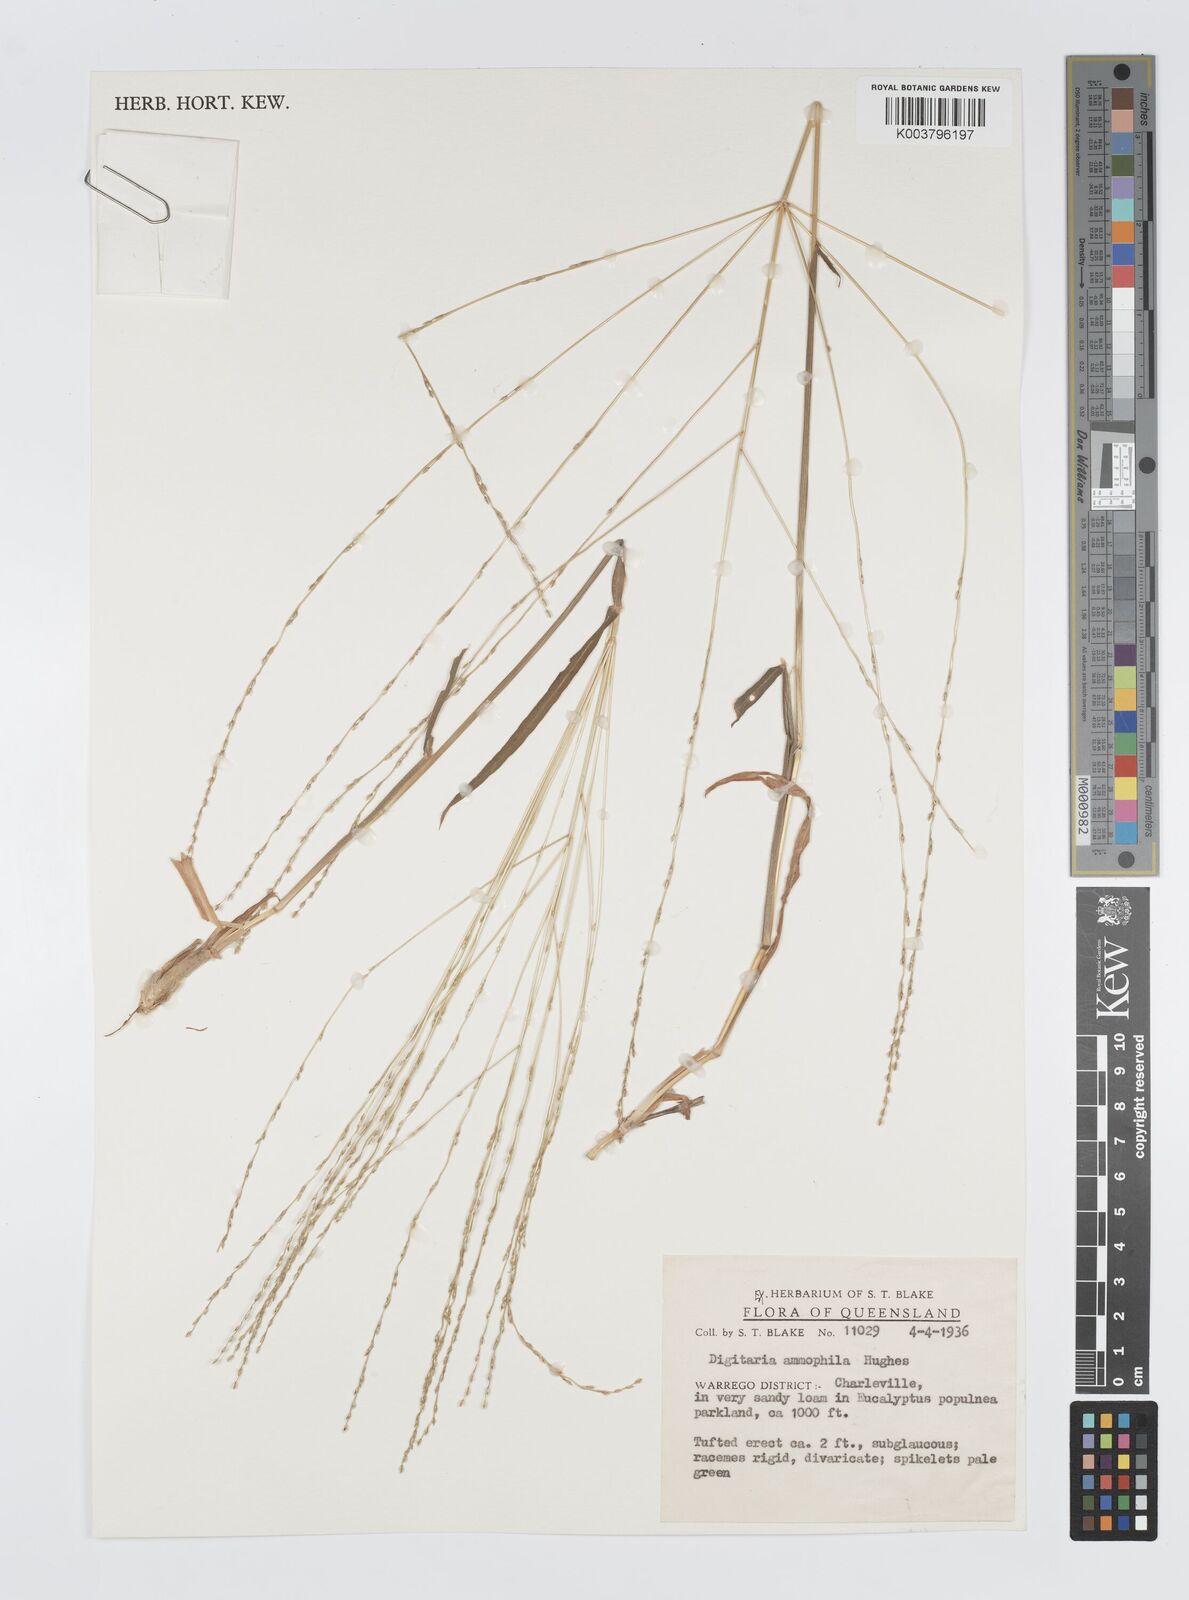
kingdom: Plantae
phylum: Tracheophyta
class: Liliopsida
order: Poales
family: Poaceae
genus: Digitaria
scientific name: Digitaria ammophila
